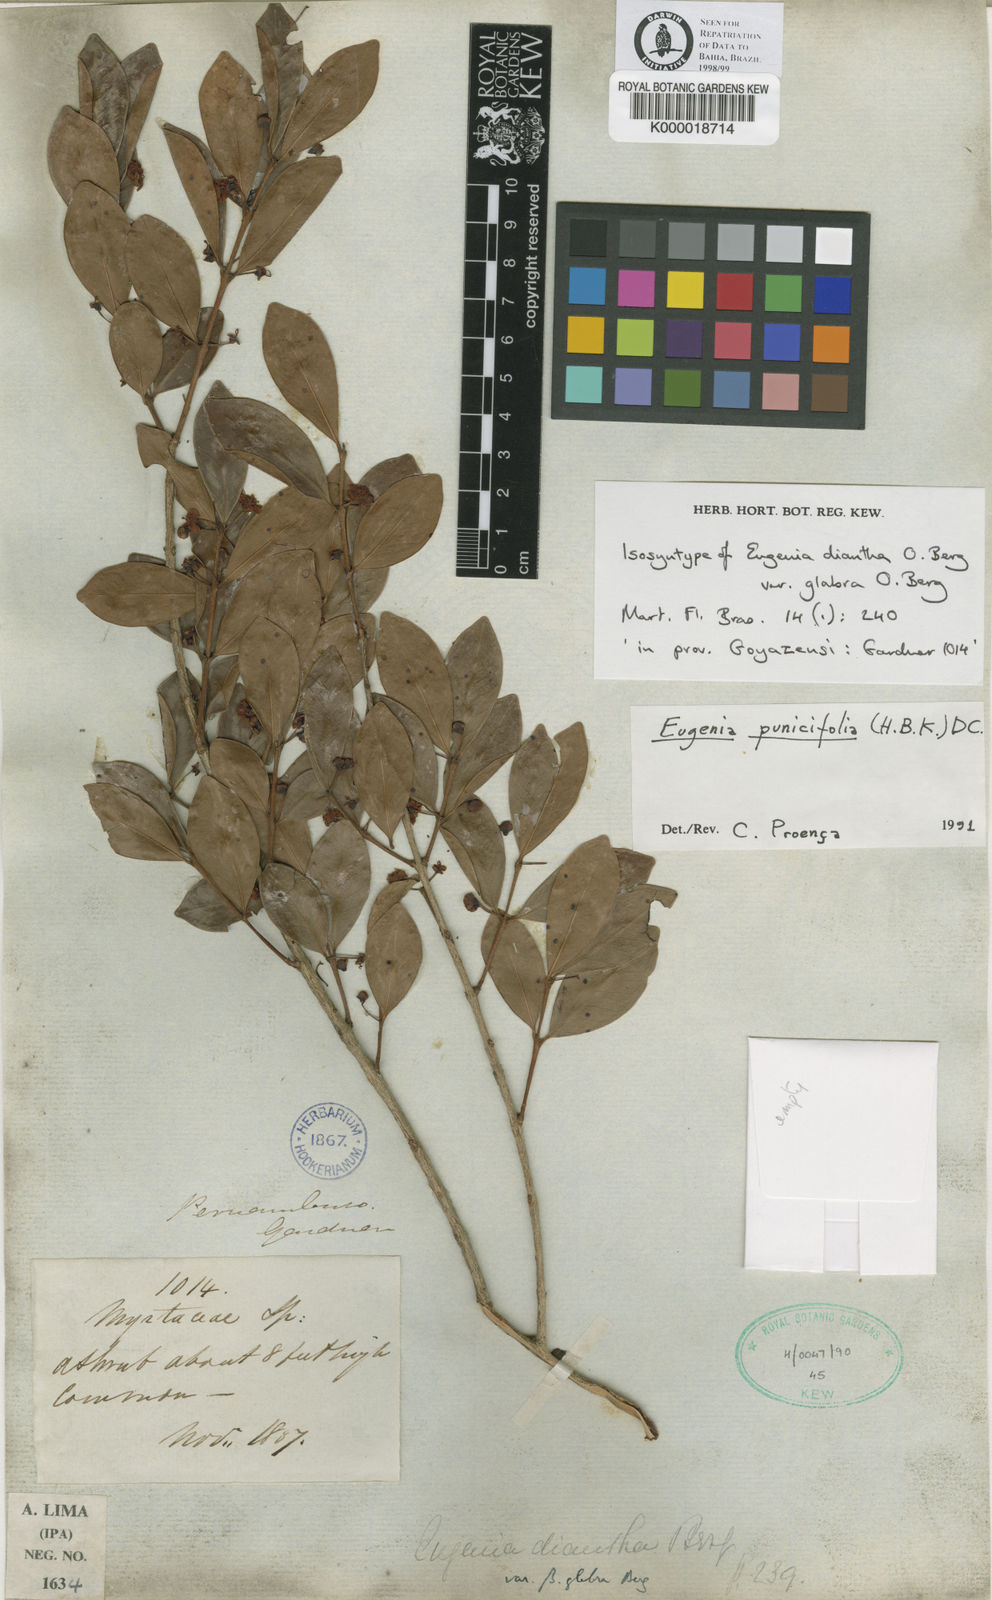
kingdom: Plantae
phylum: Tracheophyta
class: Magnoliopsida
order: Myrtales
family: Myrtaceae
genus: Eugenia
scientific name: Eugenia punicifolia
